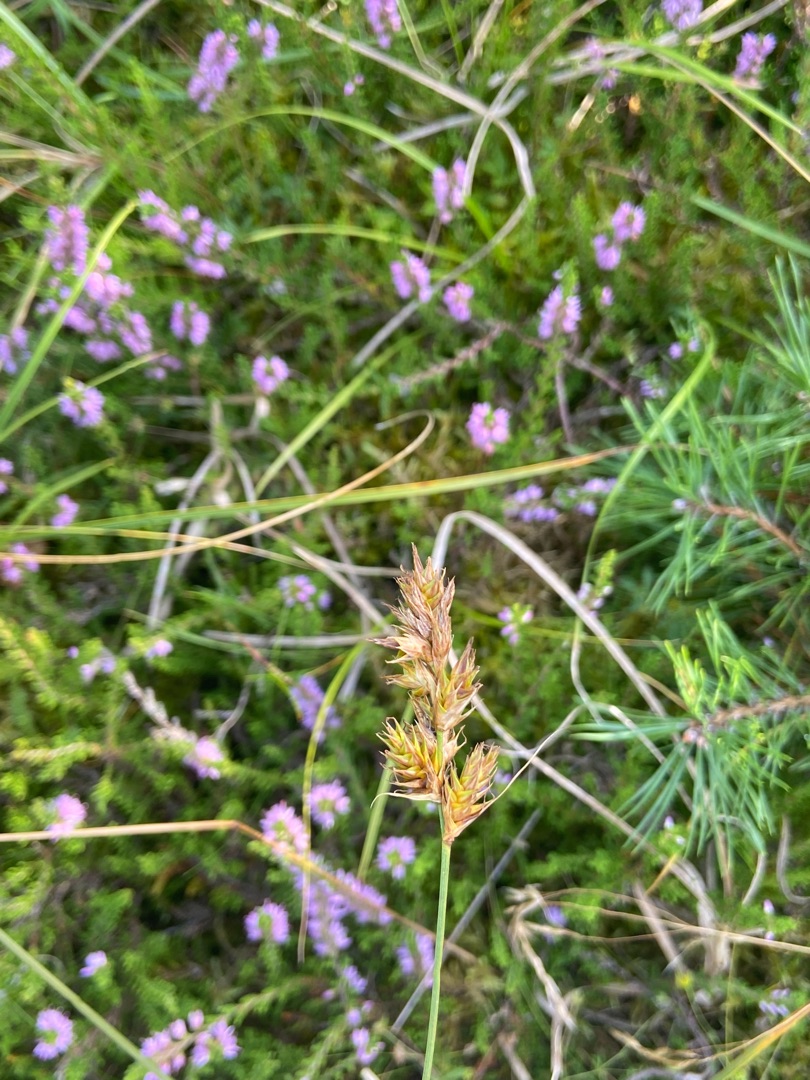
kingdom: Plantae
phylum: Tracheophyta
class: Liliopsida
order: Poales
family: Cyperaceae
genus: Carex
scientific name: Carex arenaria
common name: Sand-star
